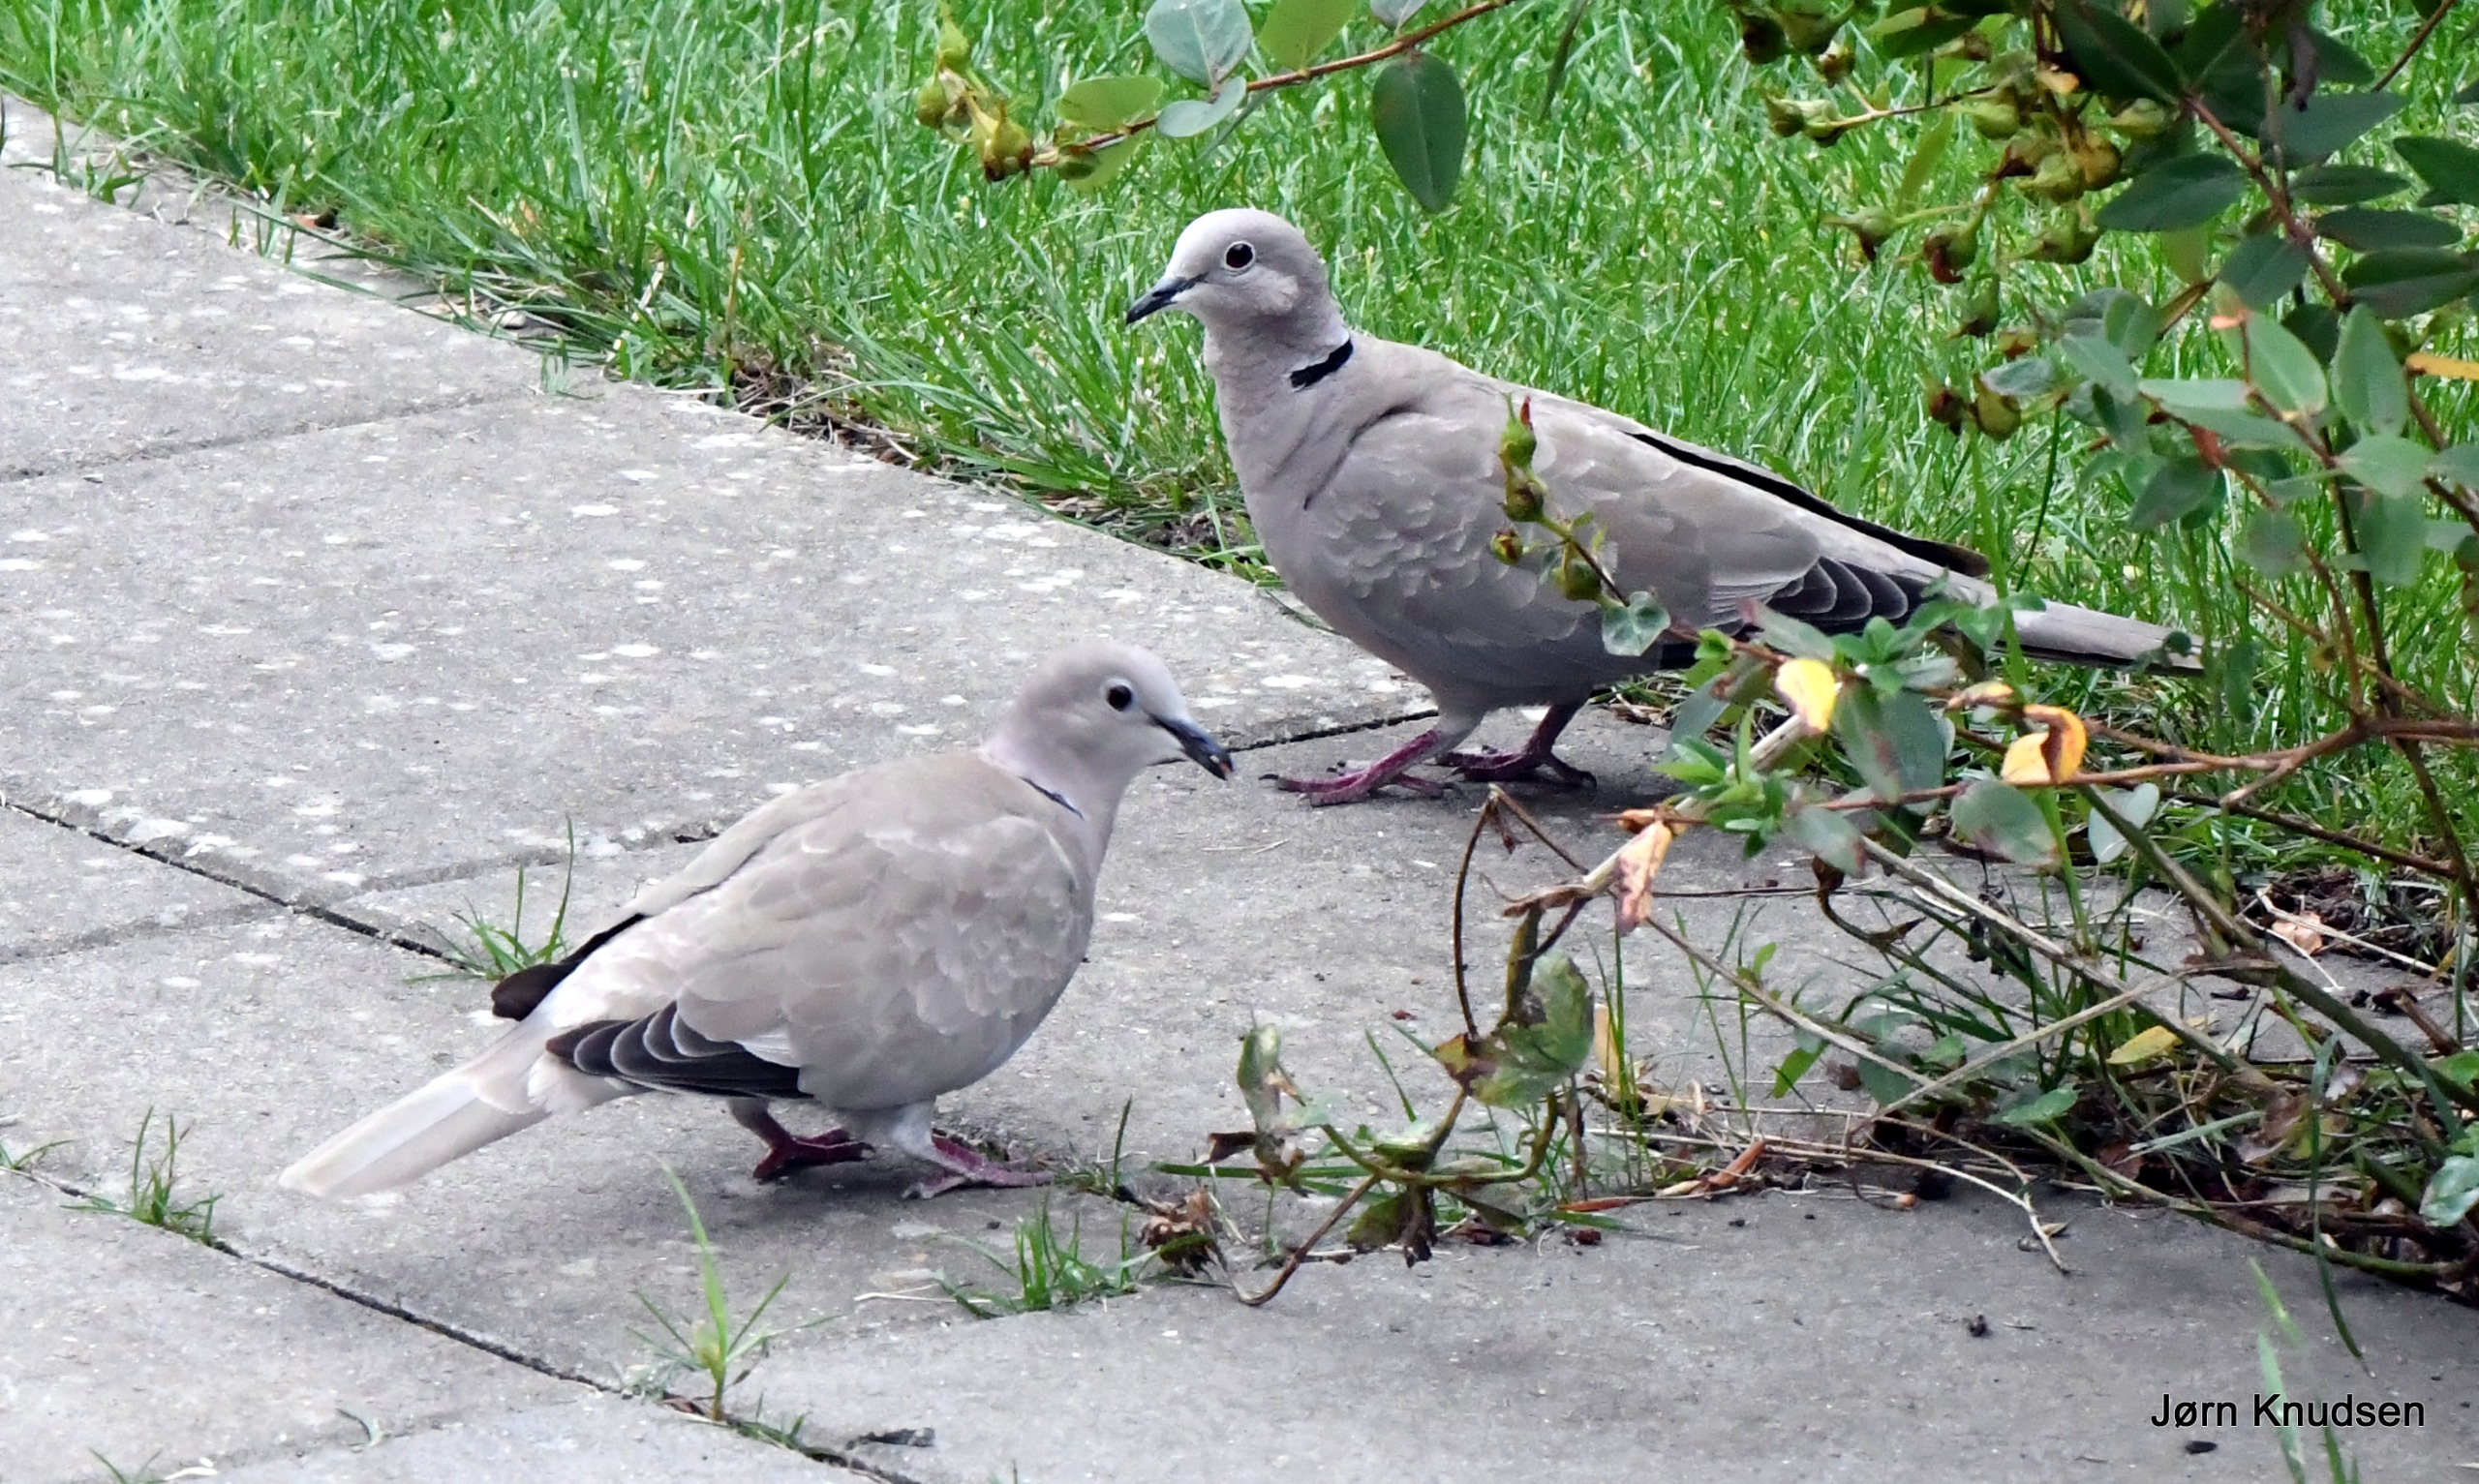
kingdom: Animalia
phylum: Chordata
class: Aves
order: Columbiformes
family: Columbidae
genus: Streptopelia
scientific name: Streptopelia decaocto
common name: Tyrkerdue
